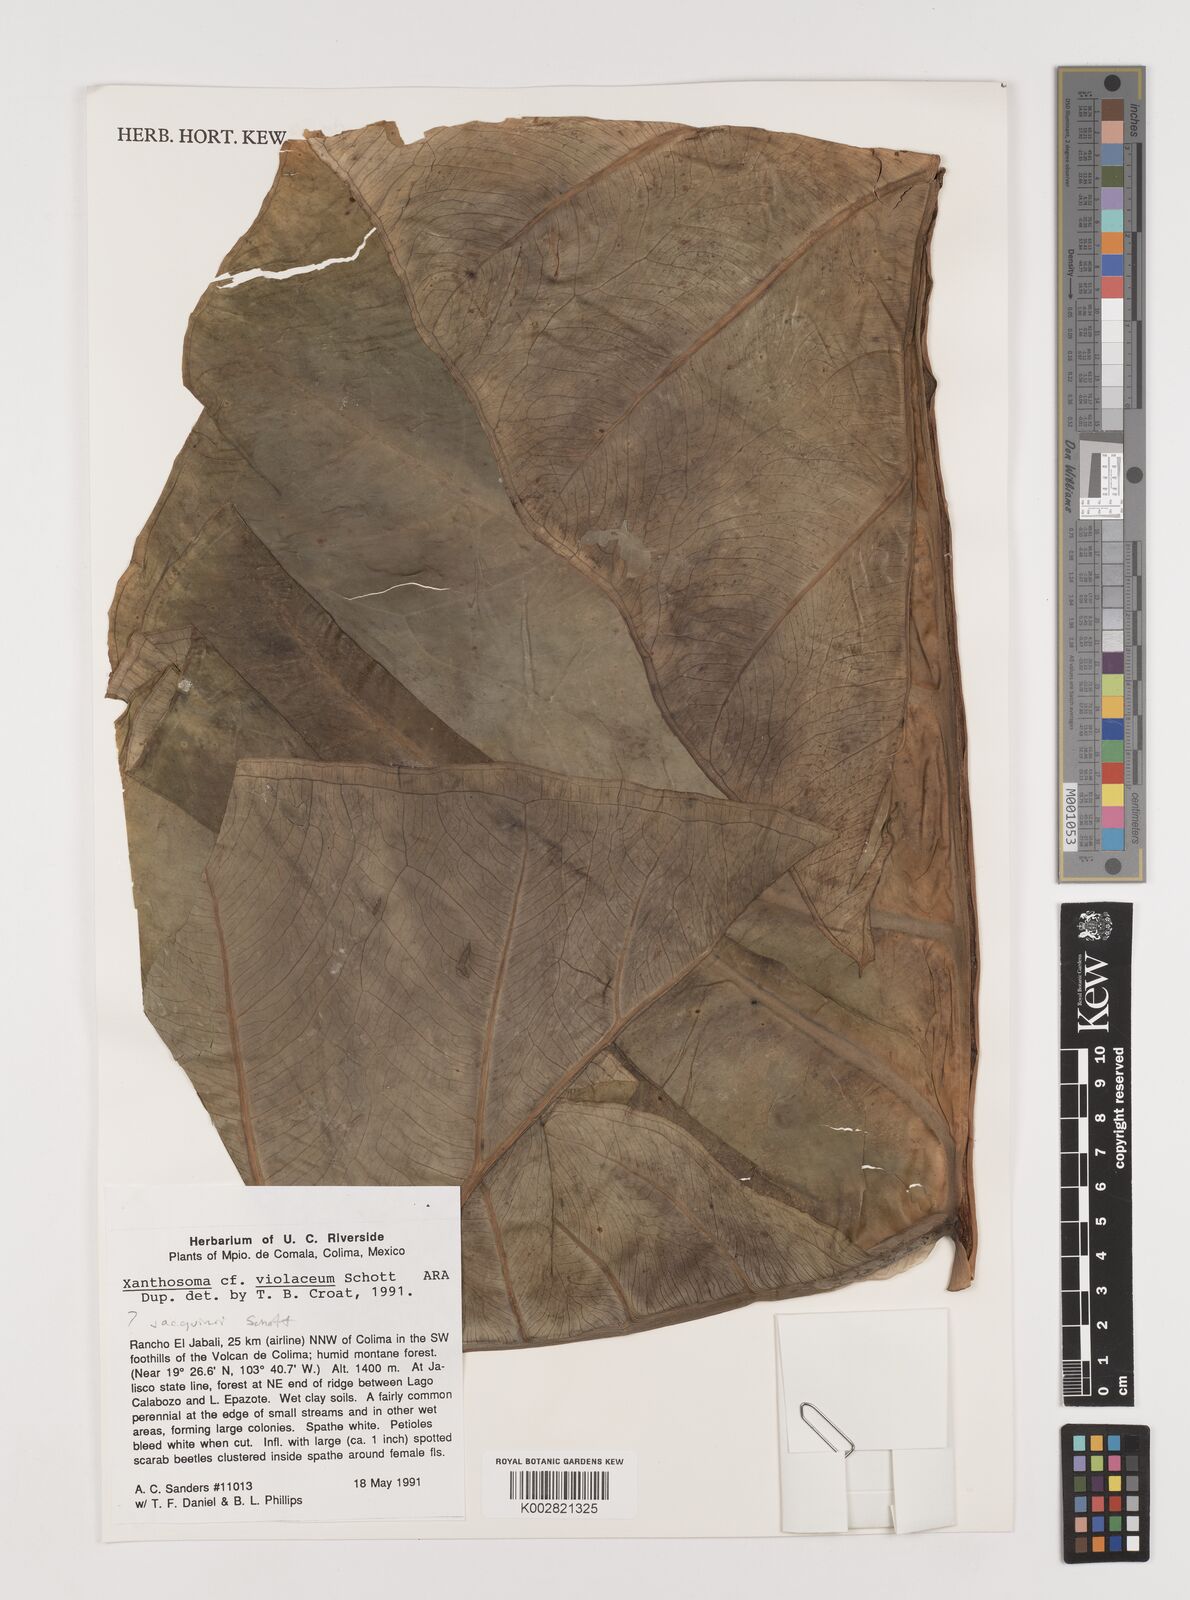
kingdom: Plantae
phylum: Tracheophyta
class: Liliopsida
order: Alismatales
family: Araceae
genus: Xanthosoma
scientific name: Xanthosoma undipes
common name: Tall elephant's ear
